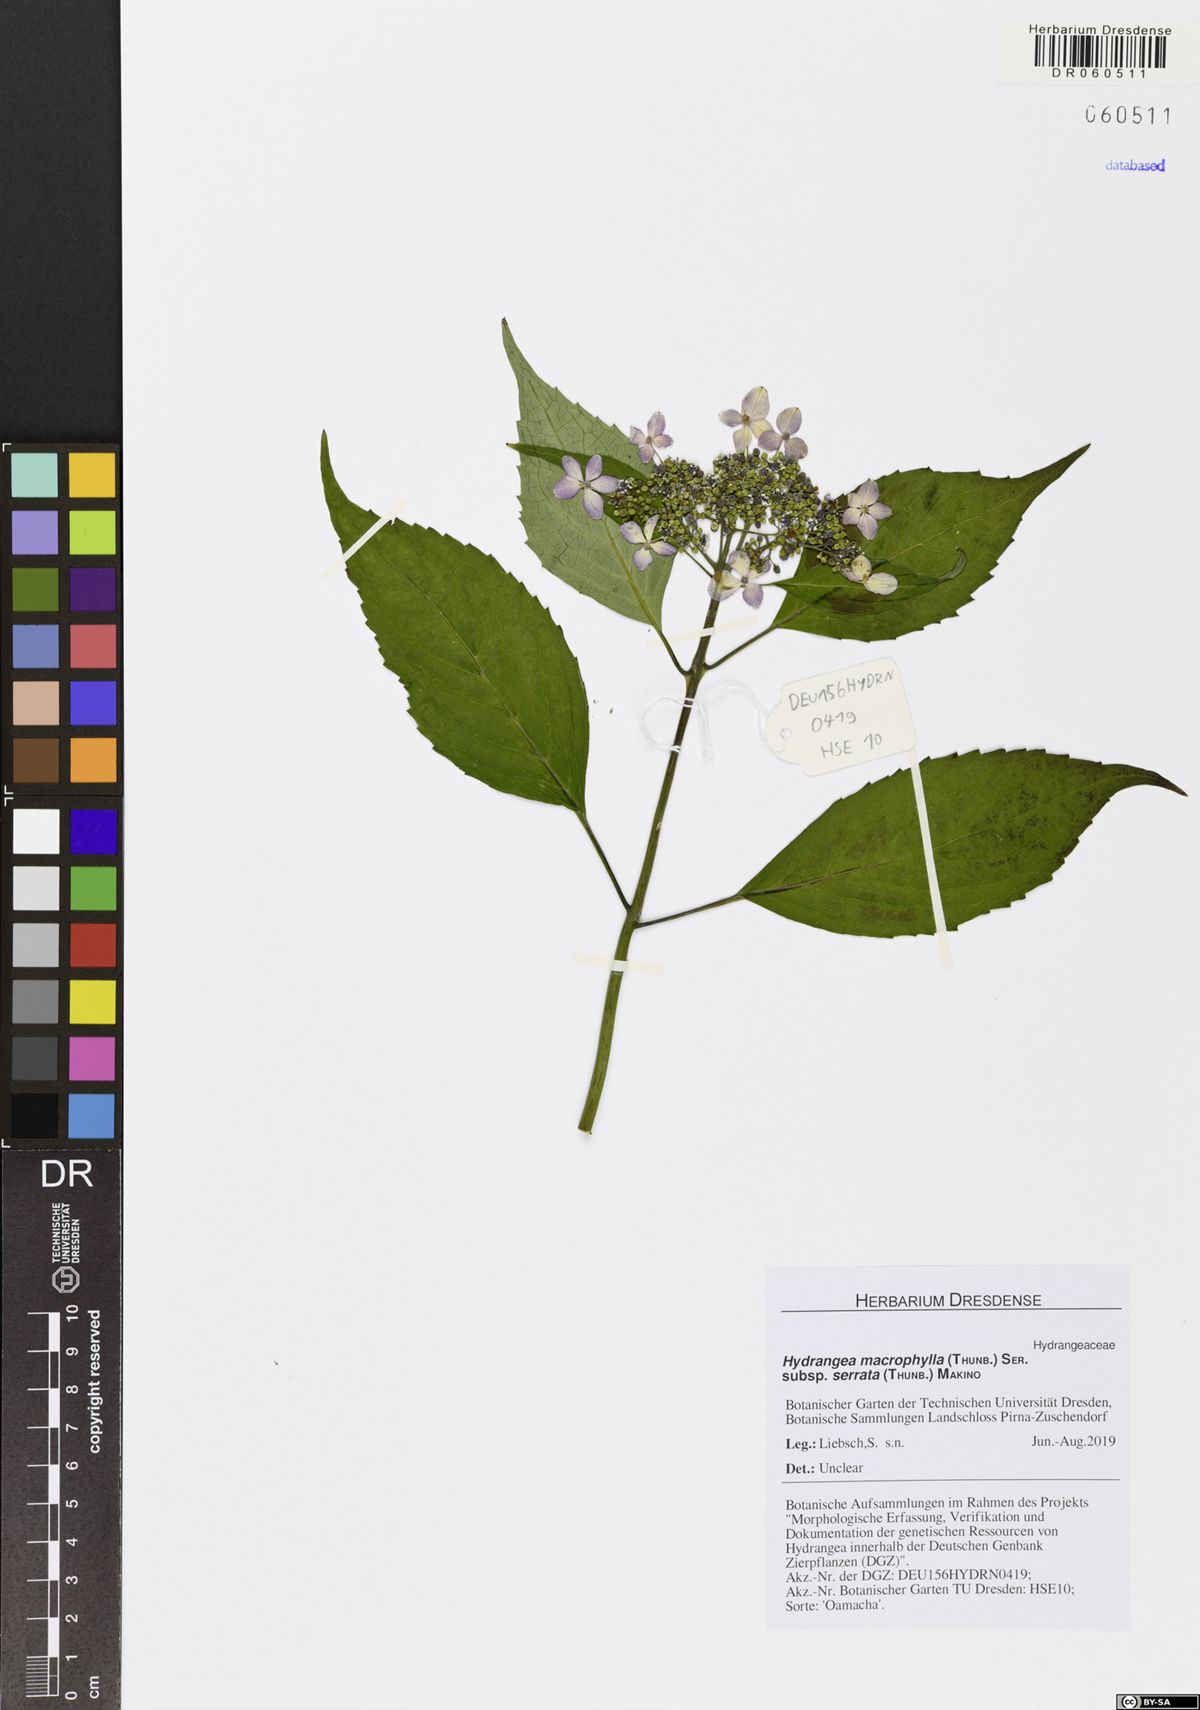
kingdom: Plantae
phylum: Tracheophyta
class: Magnoliopsida
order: Cornales
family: Hydrangeaceae
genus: Hydrangea
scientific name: Hydrangea serrata
